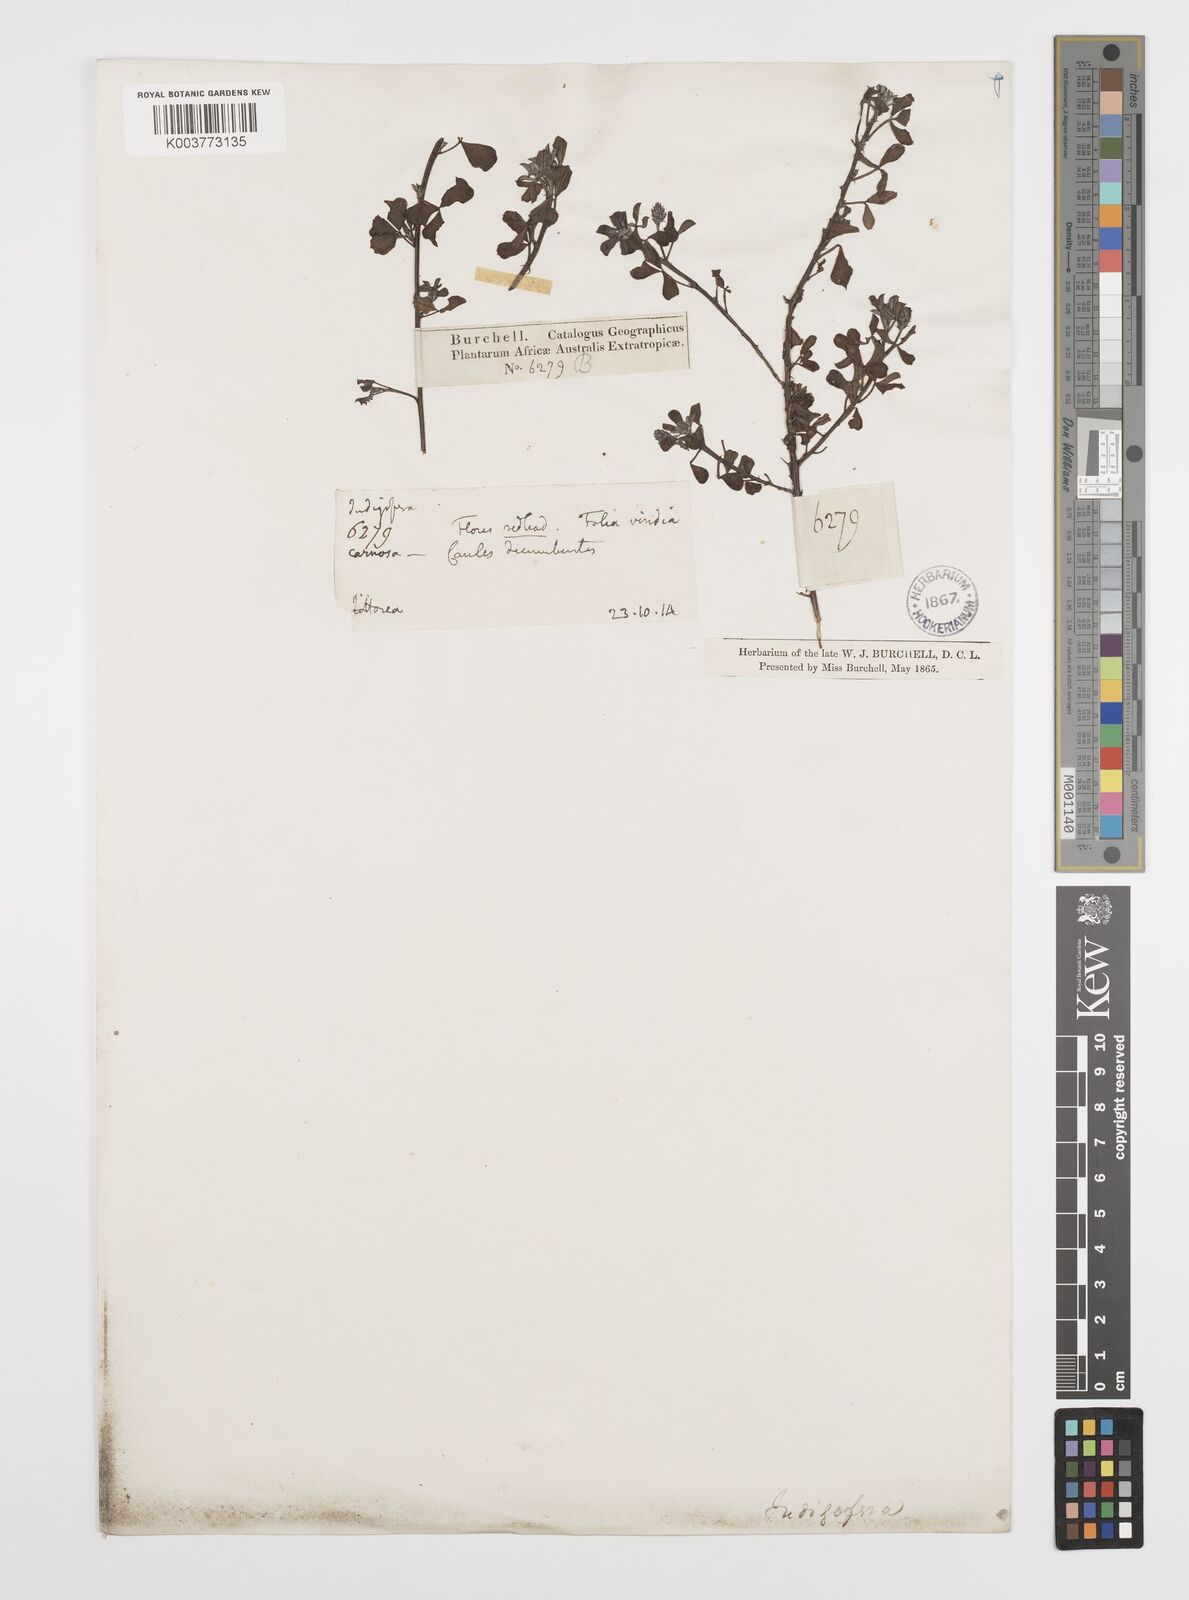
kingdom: Plantae
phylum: Tracheophyta
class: Magnoliopsida
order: Fabales
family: Fabaceae
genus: Indigofera
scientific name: Indigofera
